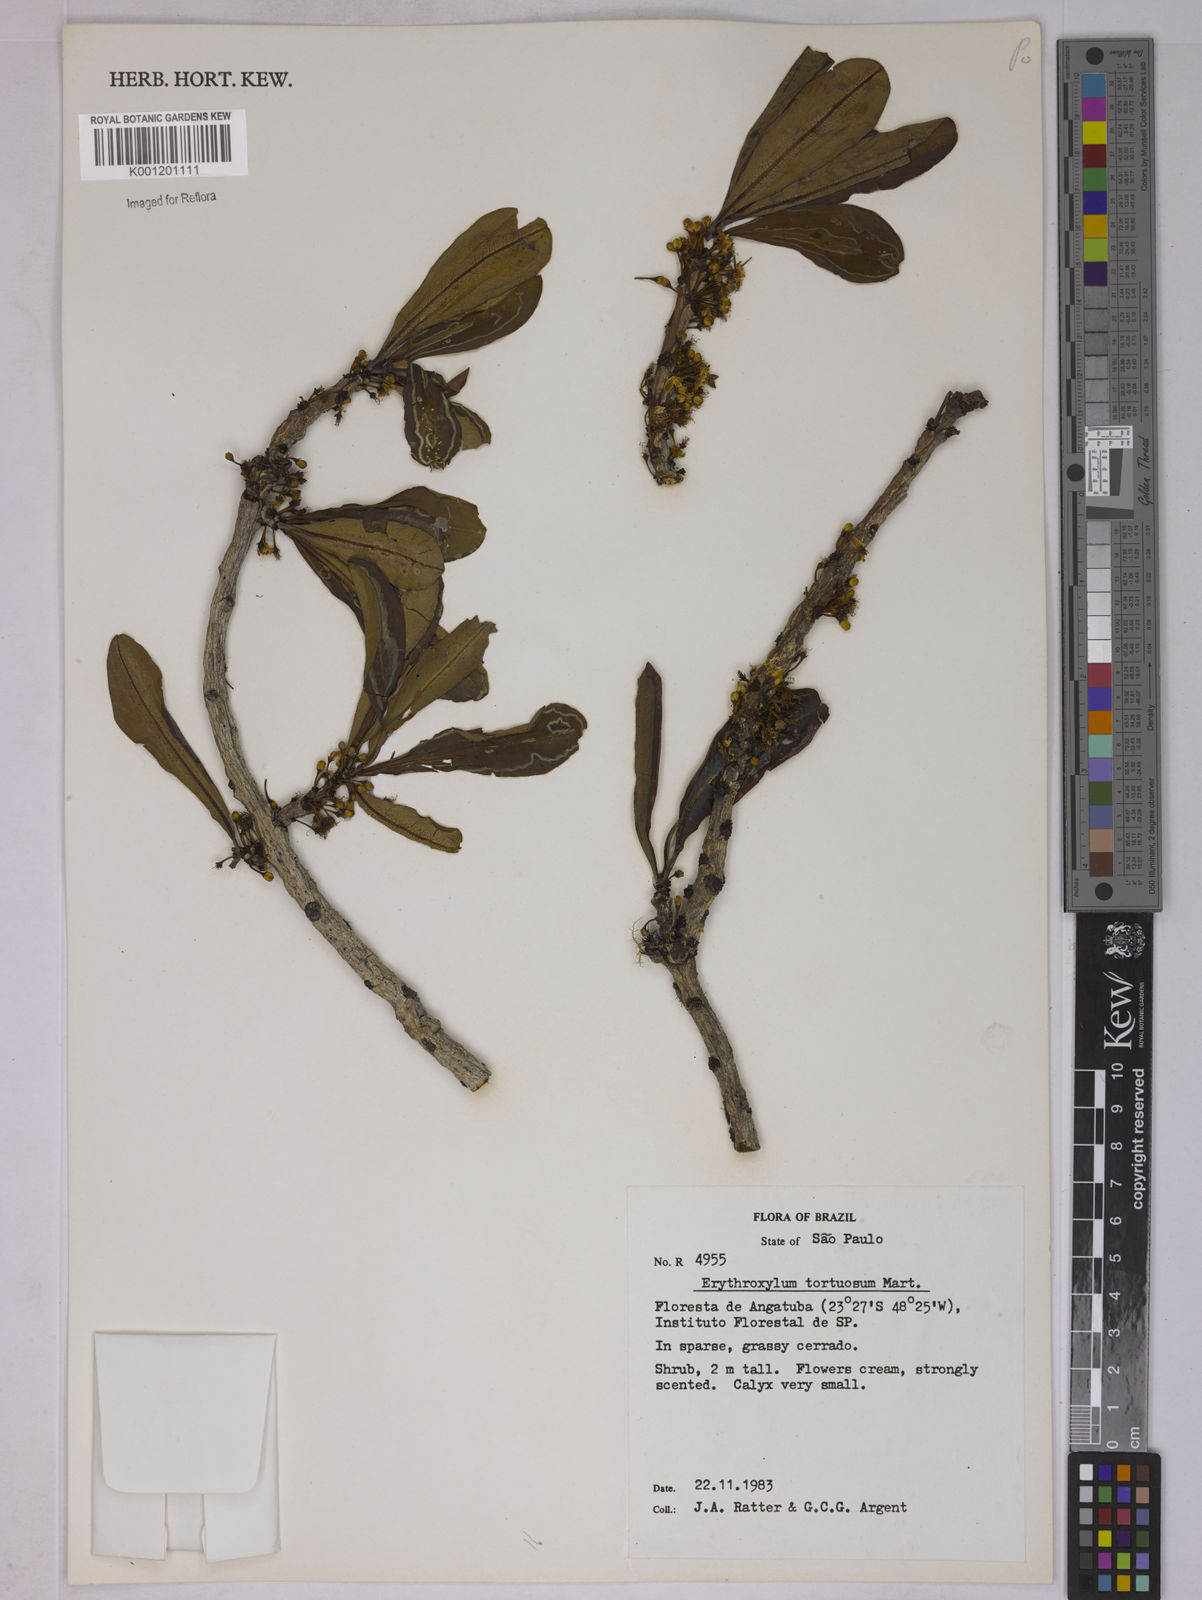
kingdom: Plantae
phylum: Tracheophyta
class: Magnoliopsida
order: Malpighiales
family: Erythroxylaceae
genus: Erythroxylum
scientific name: Erythroxylum tortuosum
